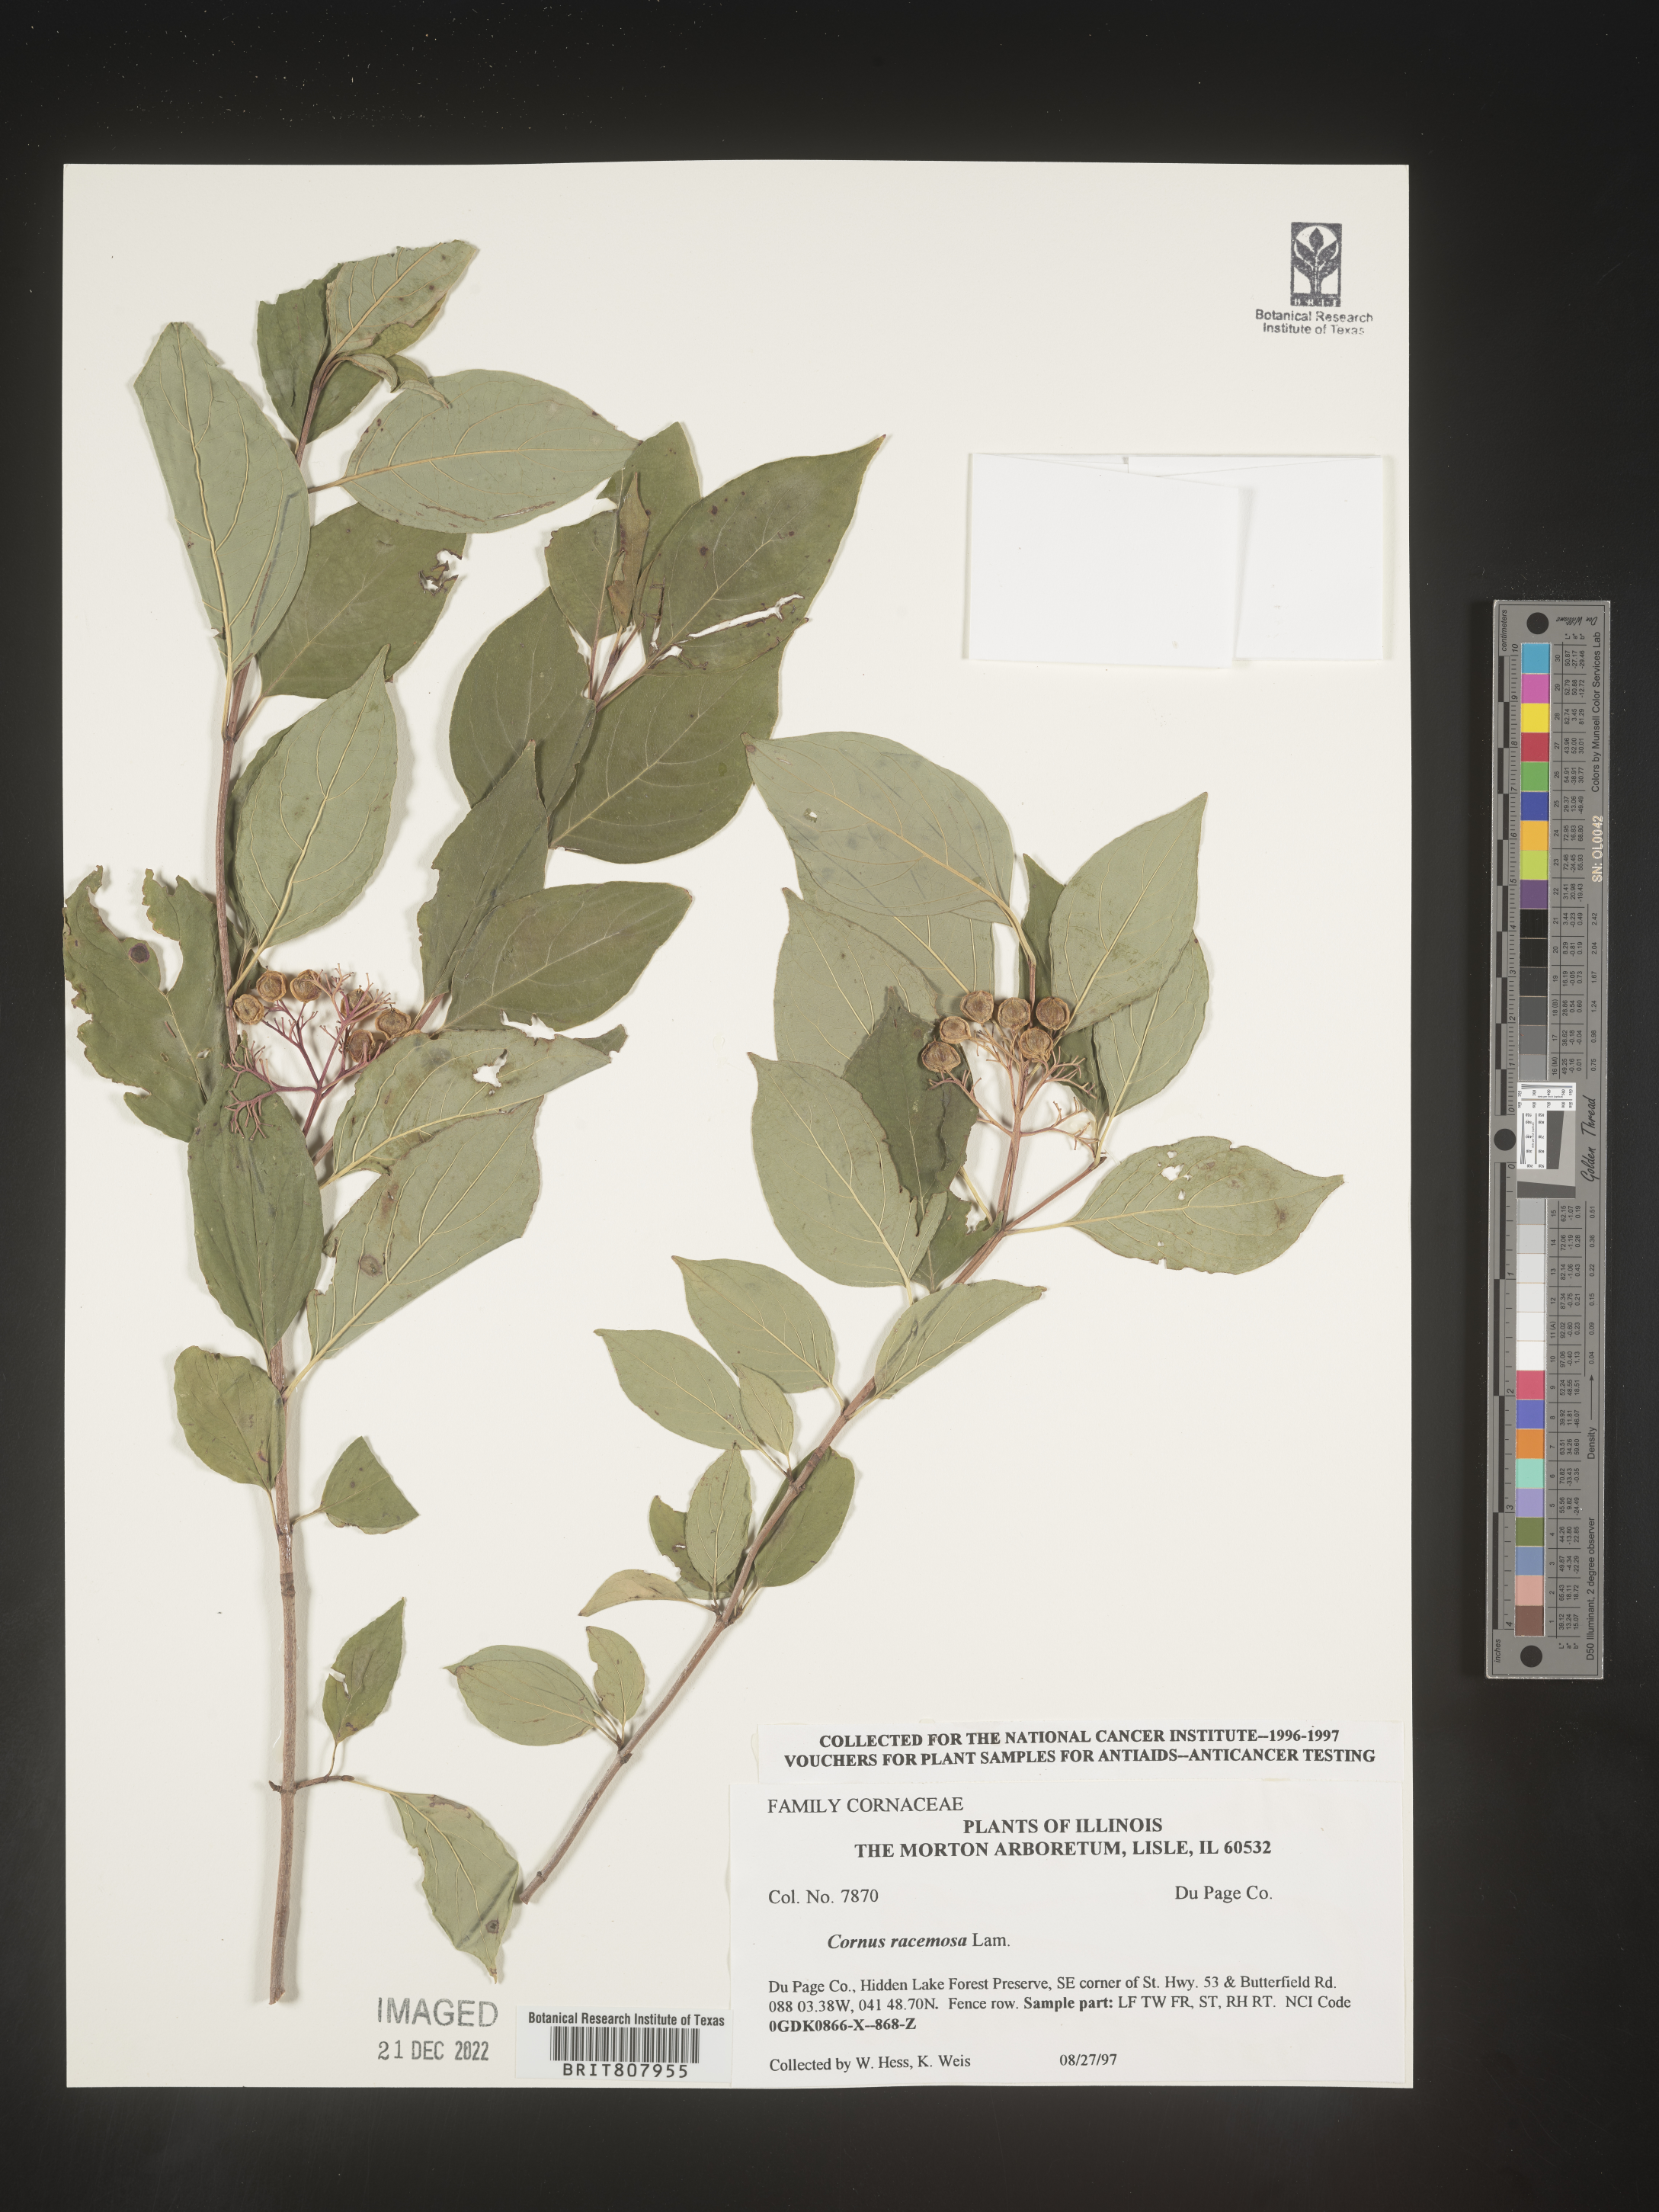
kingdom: Plantae
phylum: Tracheophyta
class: Magnoliopsida
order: Cornales
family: Cornaceae
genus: Cornus
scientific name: Cornus racemosa
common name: Panicled dogwood
